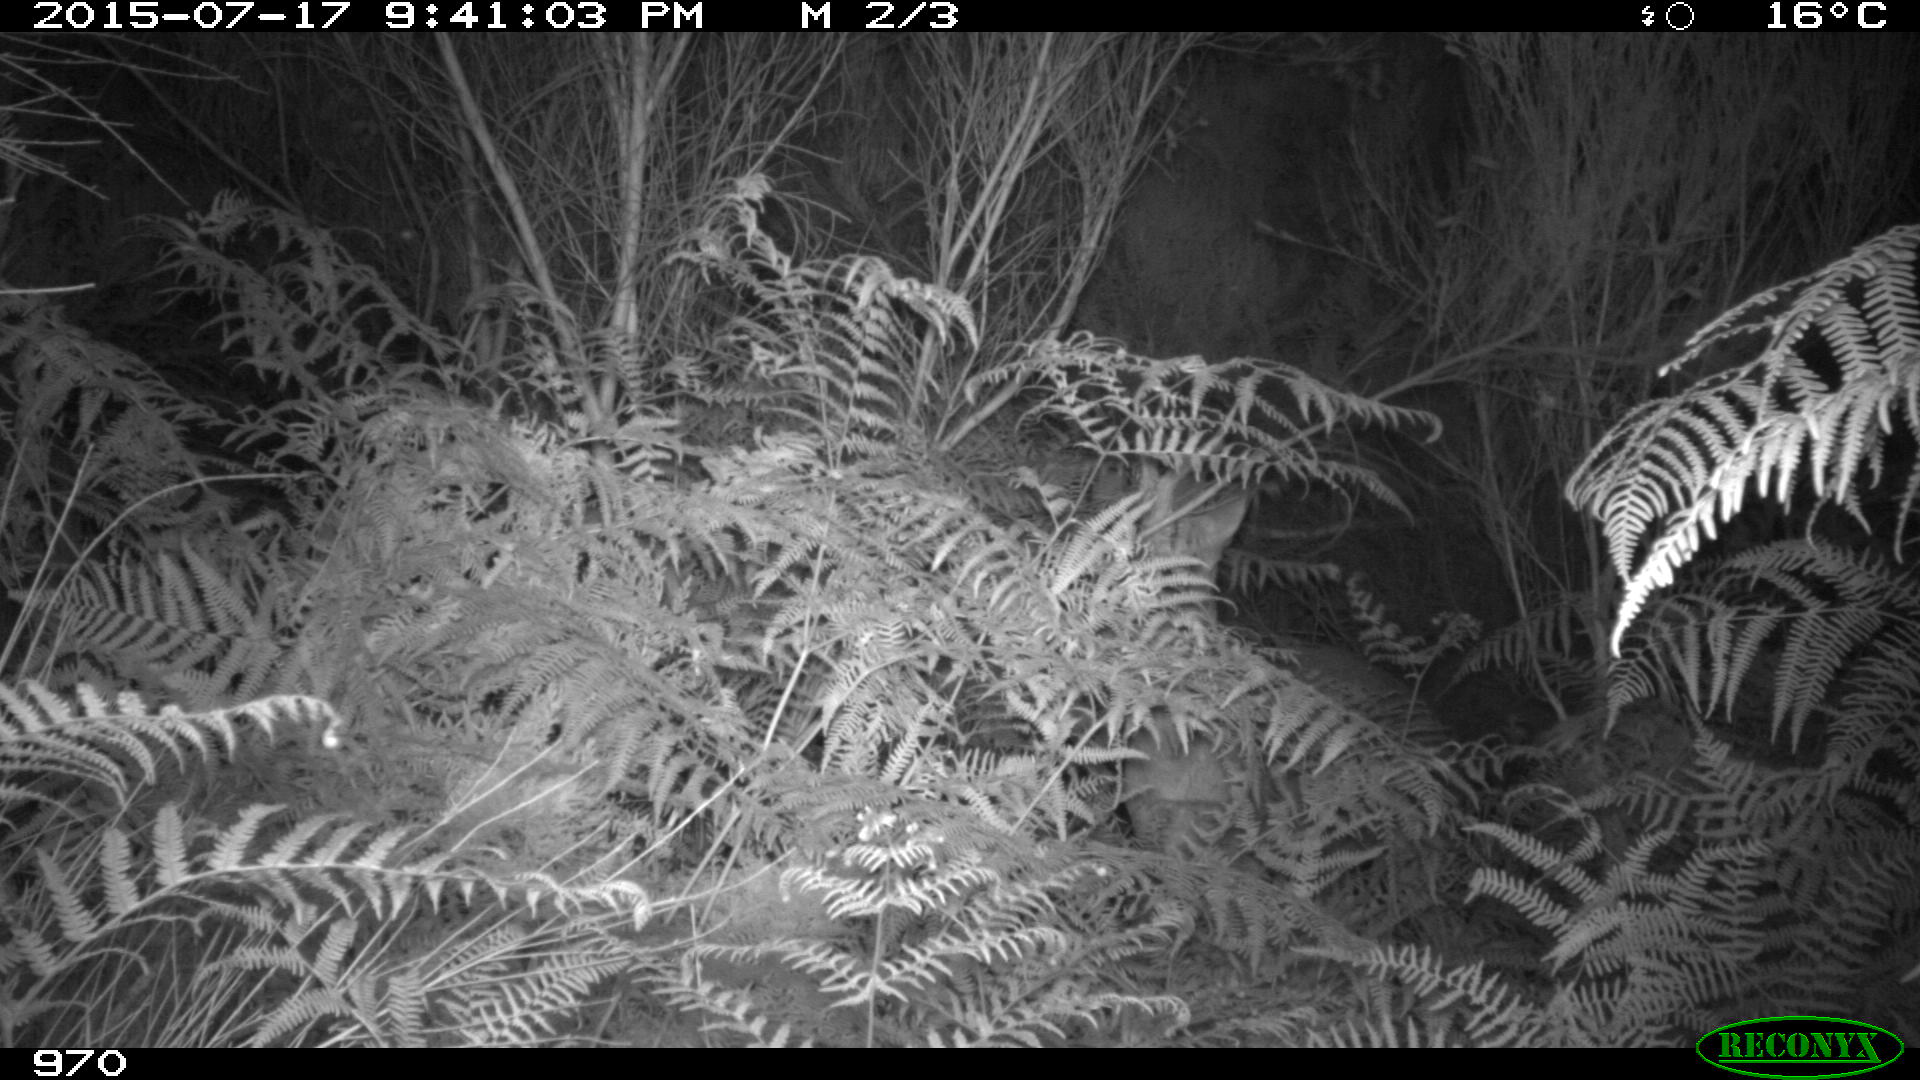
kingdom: Animalia
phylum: Chordata
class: Mammalia
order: Artiodactyla
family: Cervidae
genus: Capreolus
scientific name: Capreolus capreolus
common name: Western roe deer
